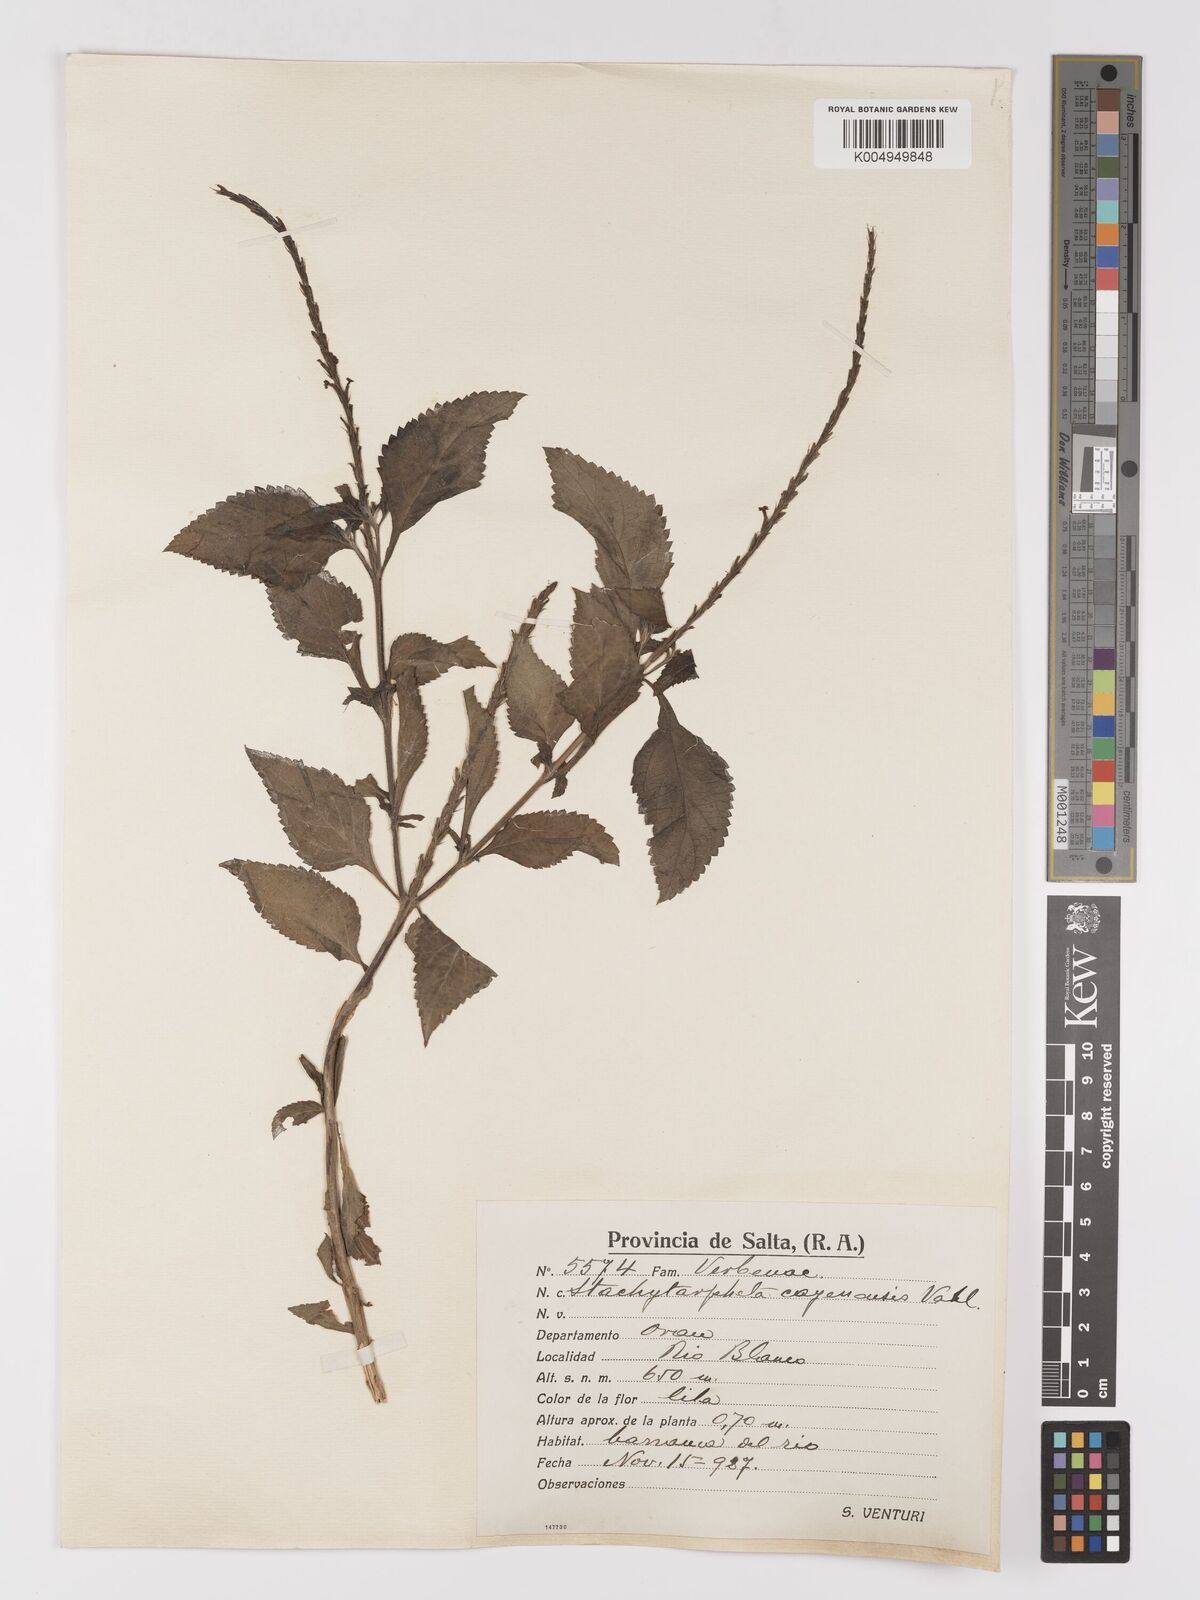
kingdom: Plantae
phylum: Tracheophyta
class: Magnoliopsida
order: Lamiales
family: Verbenaceae
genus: Stachytarpheta
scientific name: Stachytarpheta cayennensis
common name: Cayenne porterweed
